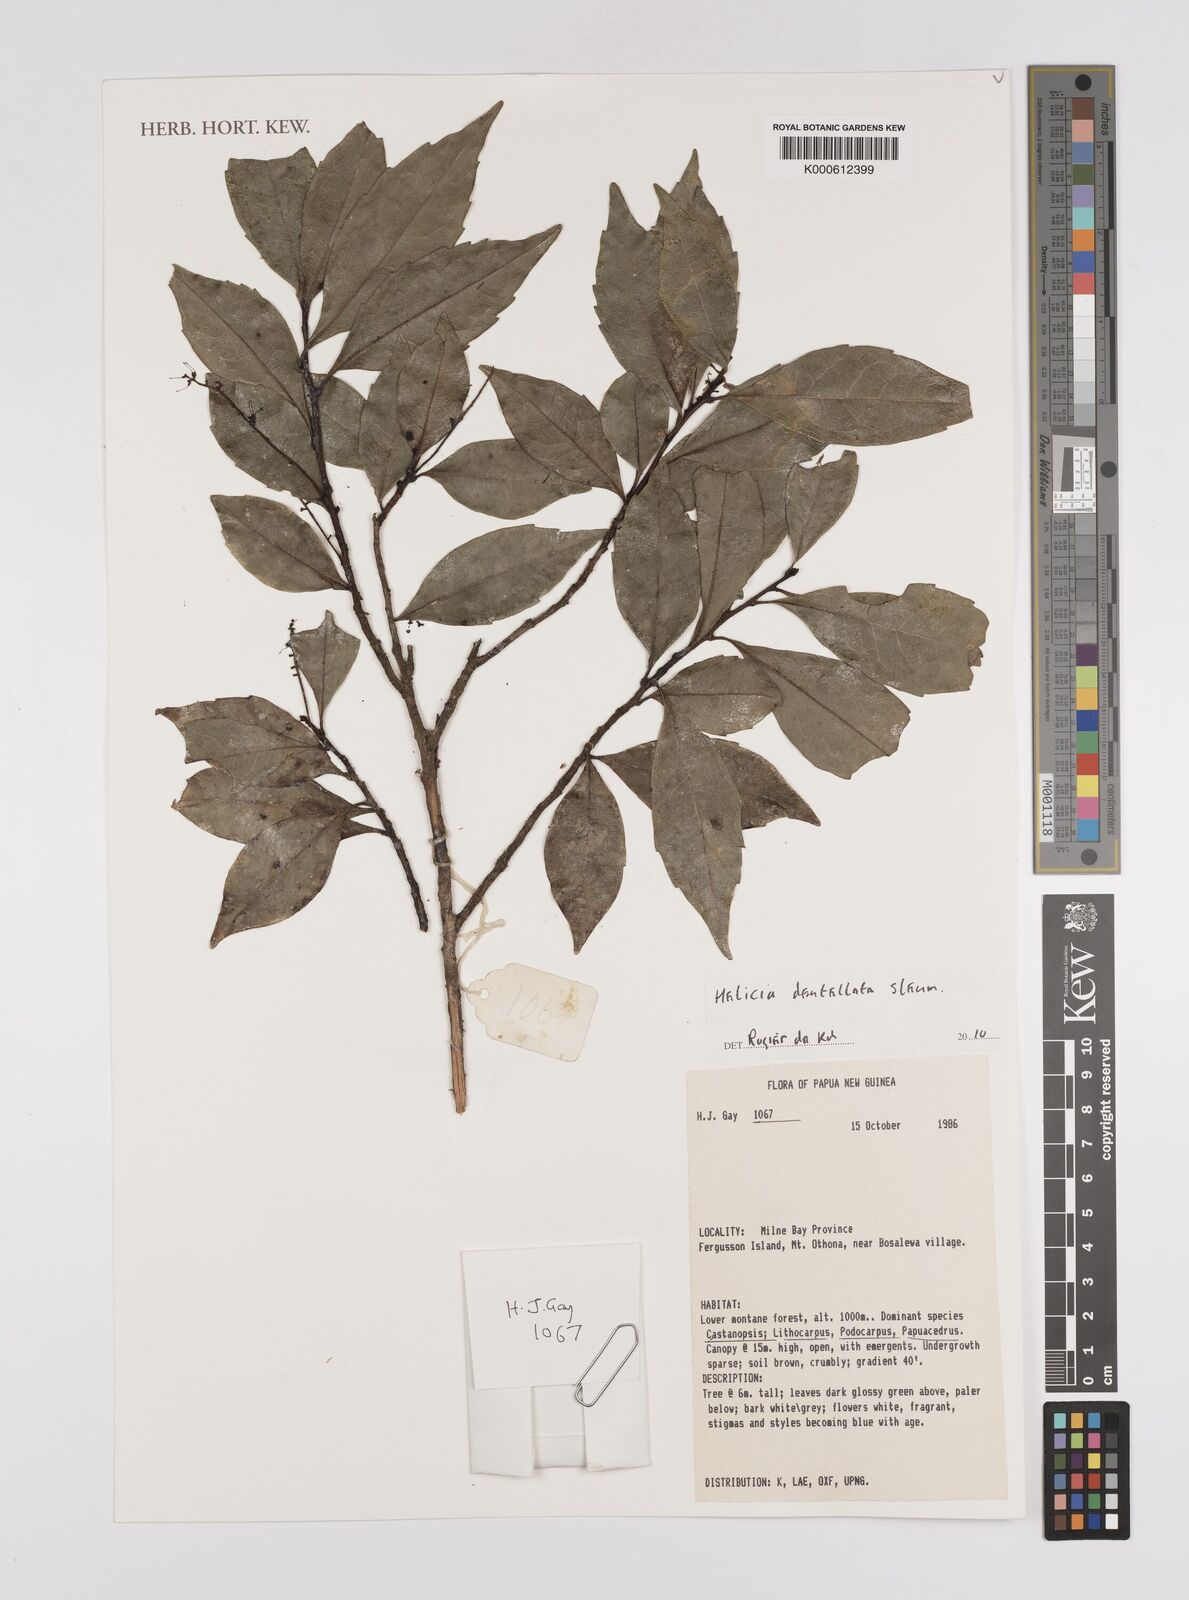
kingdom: Plantae
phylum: Tracheophyta
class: Magnoliopsida
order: Proteales
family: Proteaceae
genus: Helicia
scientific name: Helicia australasica
